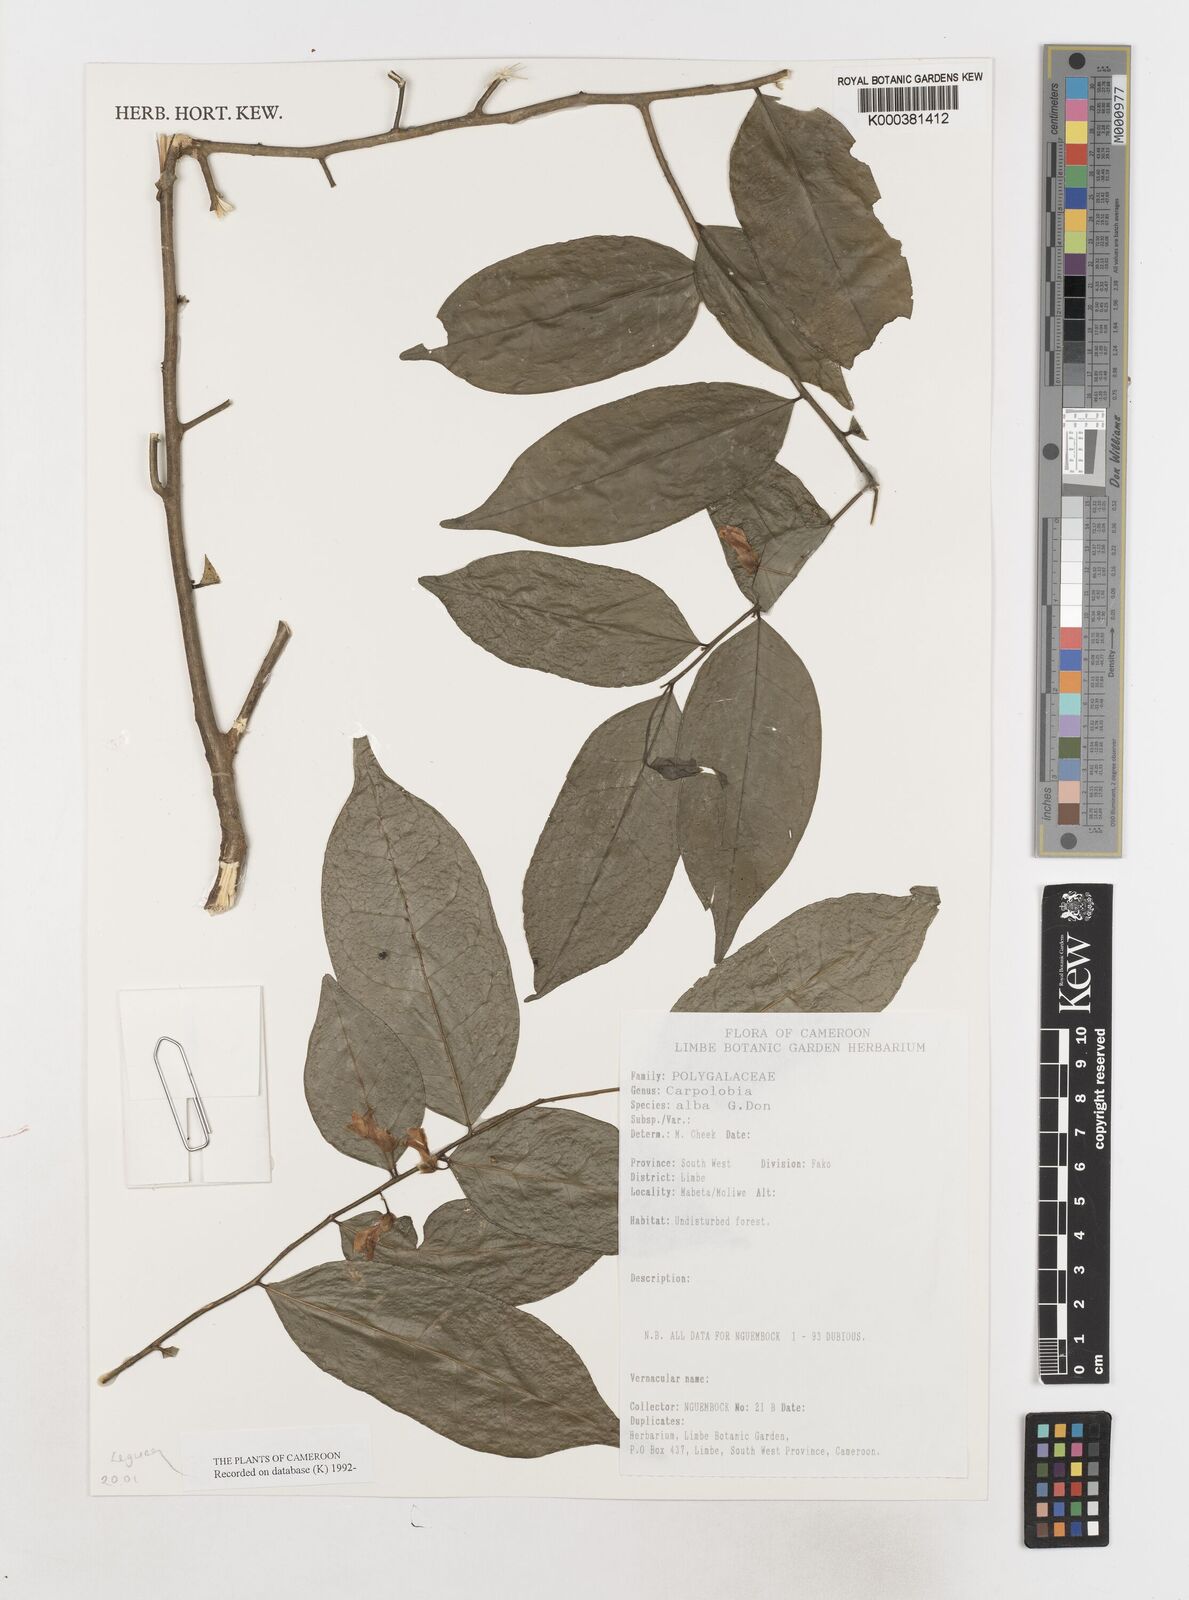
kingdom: Plantae
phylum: Tracheophyta
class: Magnoliopsida
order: Fabales
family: Polygalaceae
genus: Carpolobia
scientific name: Carpolobia alba
